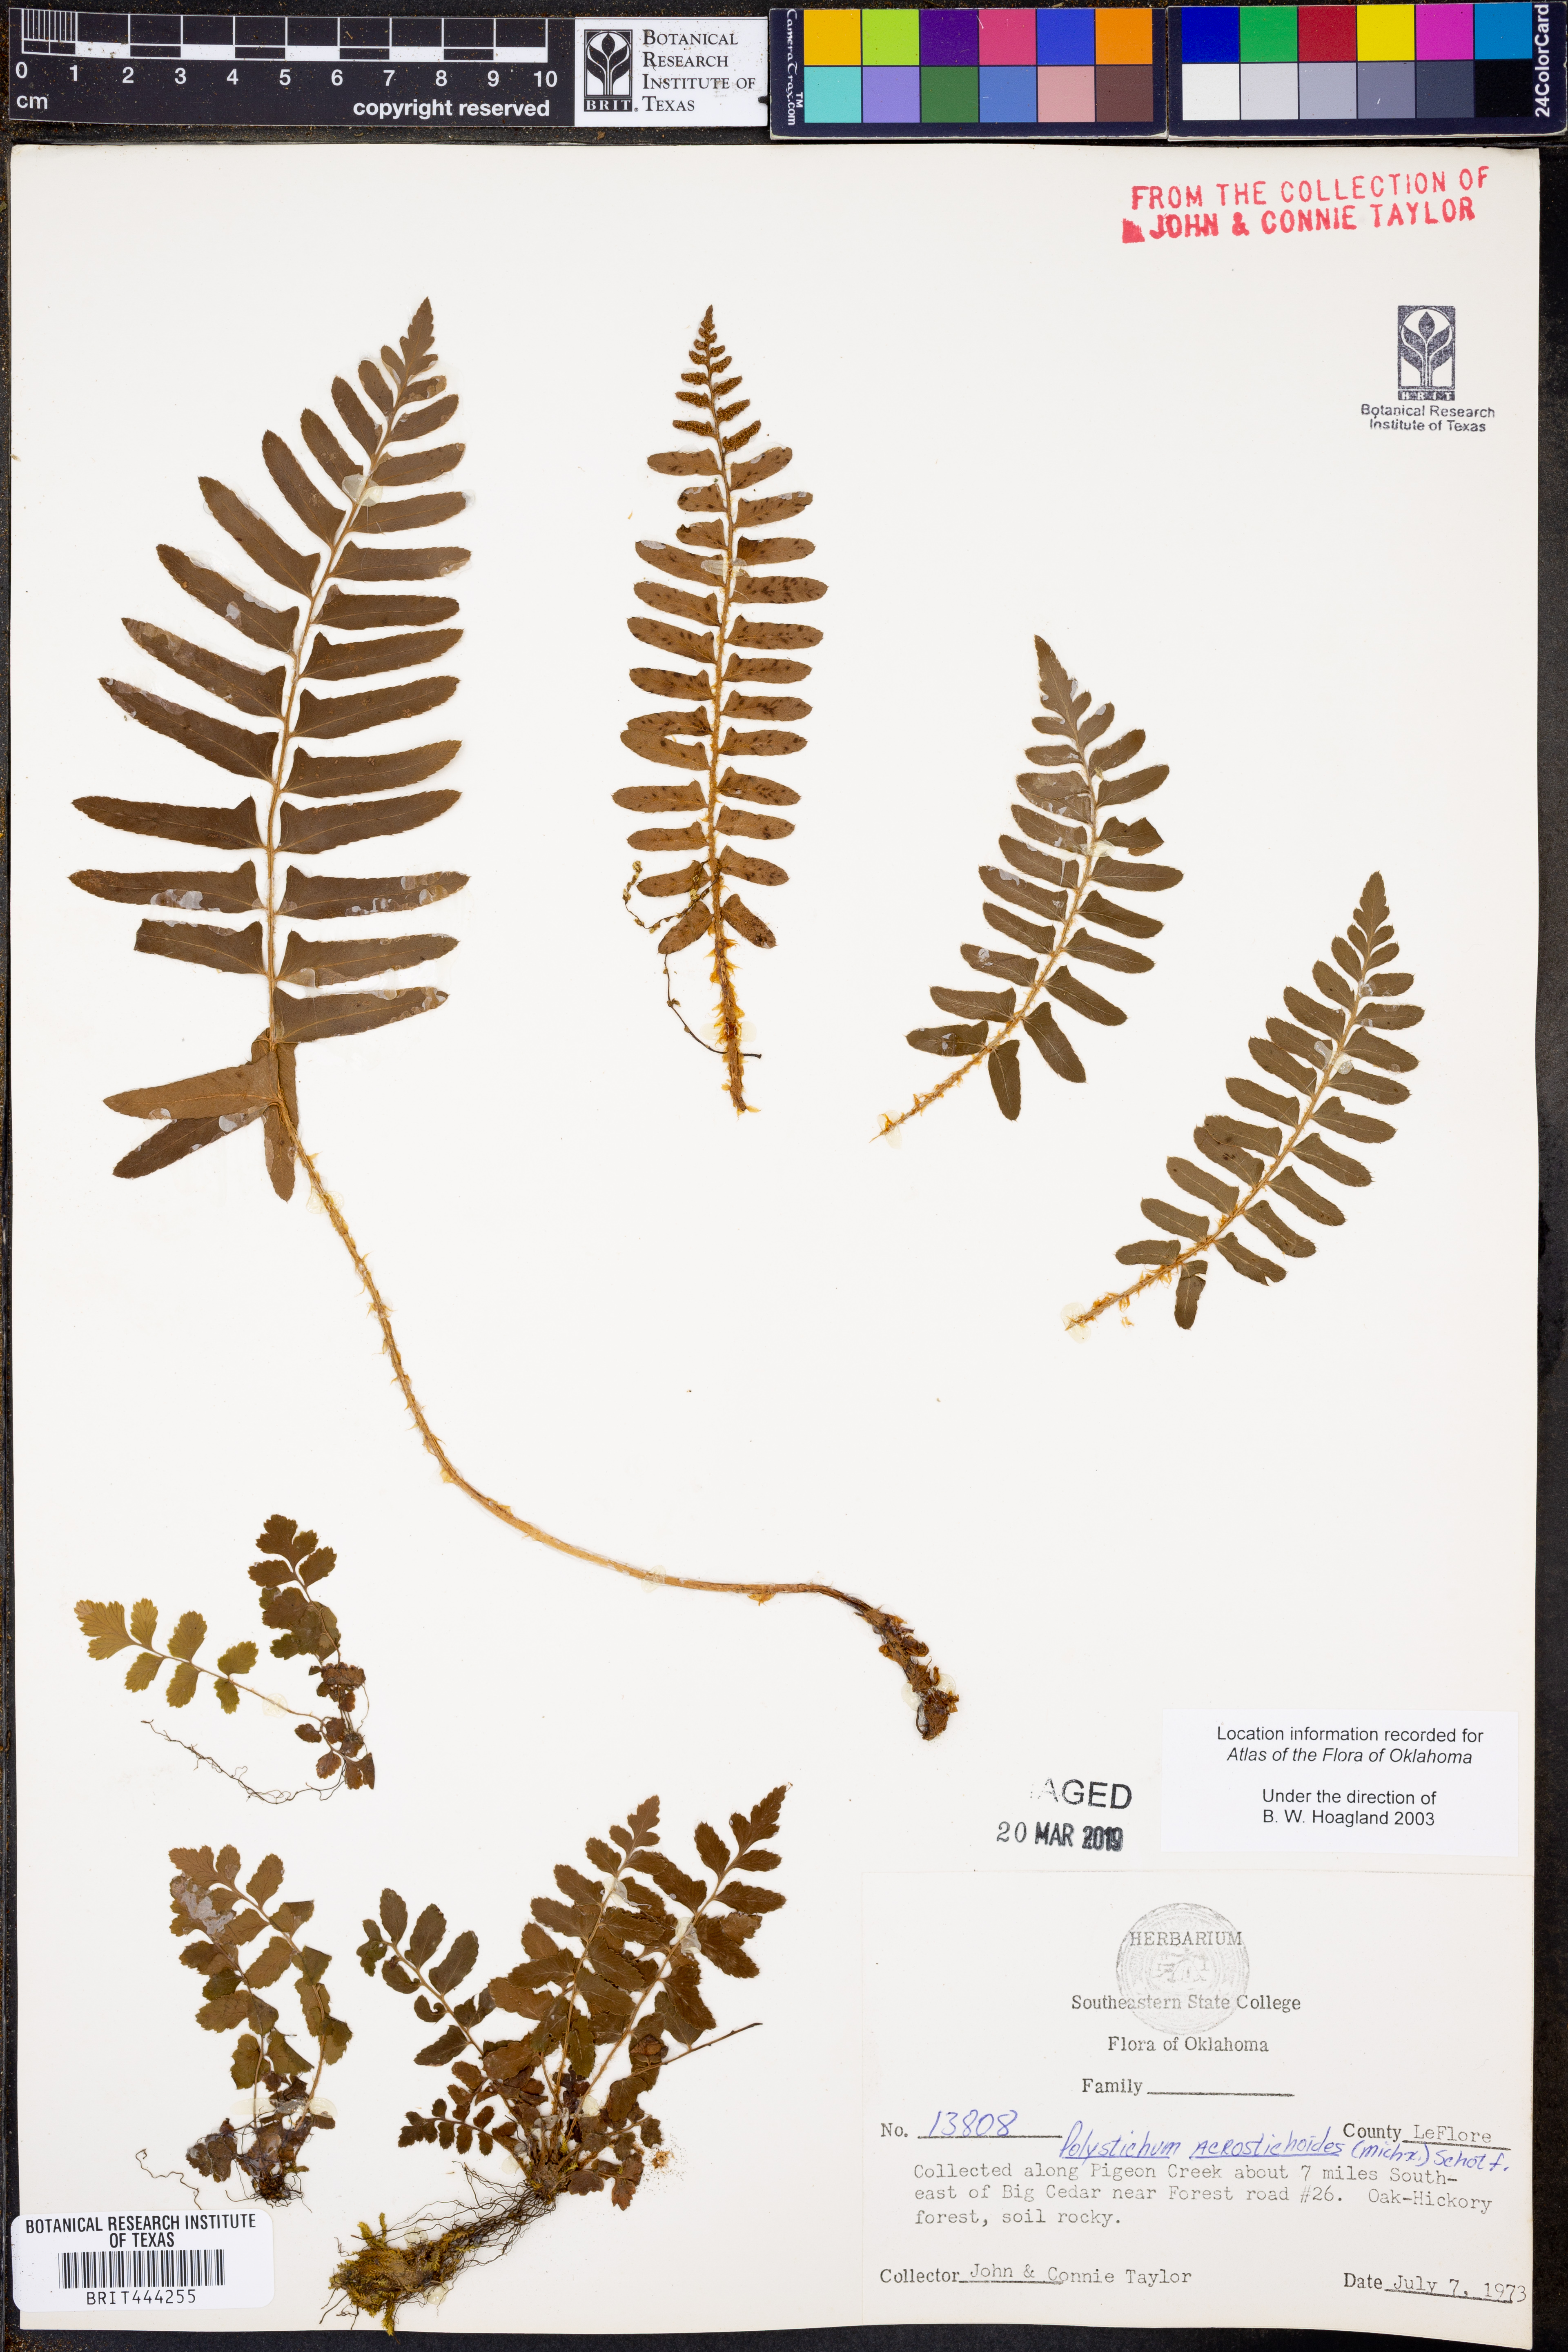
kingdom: Plantae
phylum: Tracheophyta
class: Polypodiopsida
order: Polypodiales
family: Dryopteridaceae
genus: Polystichum
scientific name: Polystichum acrostichoides
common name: Christmas fern
